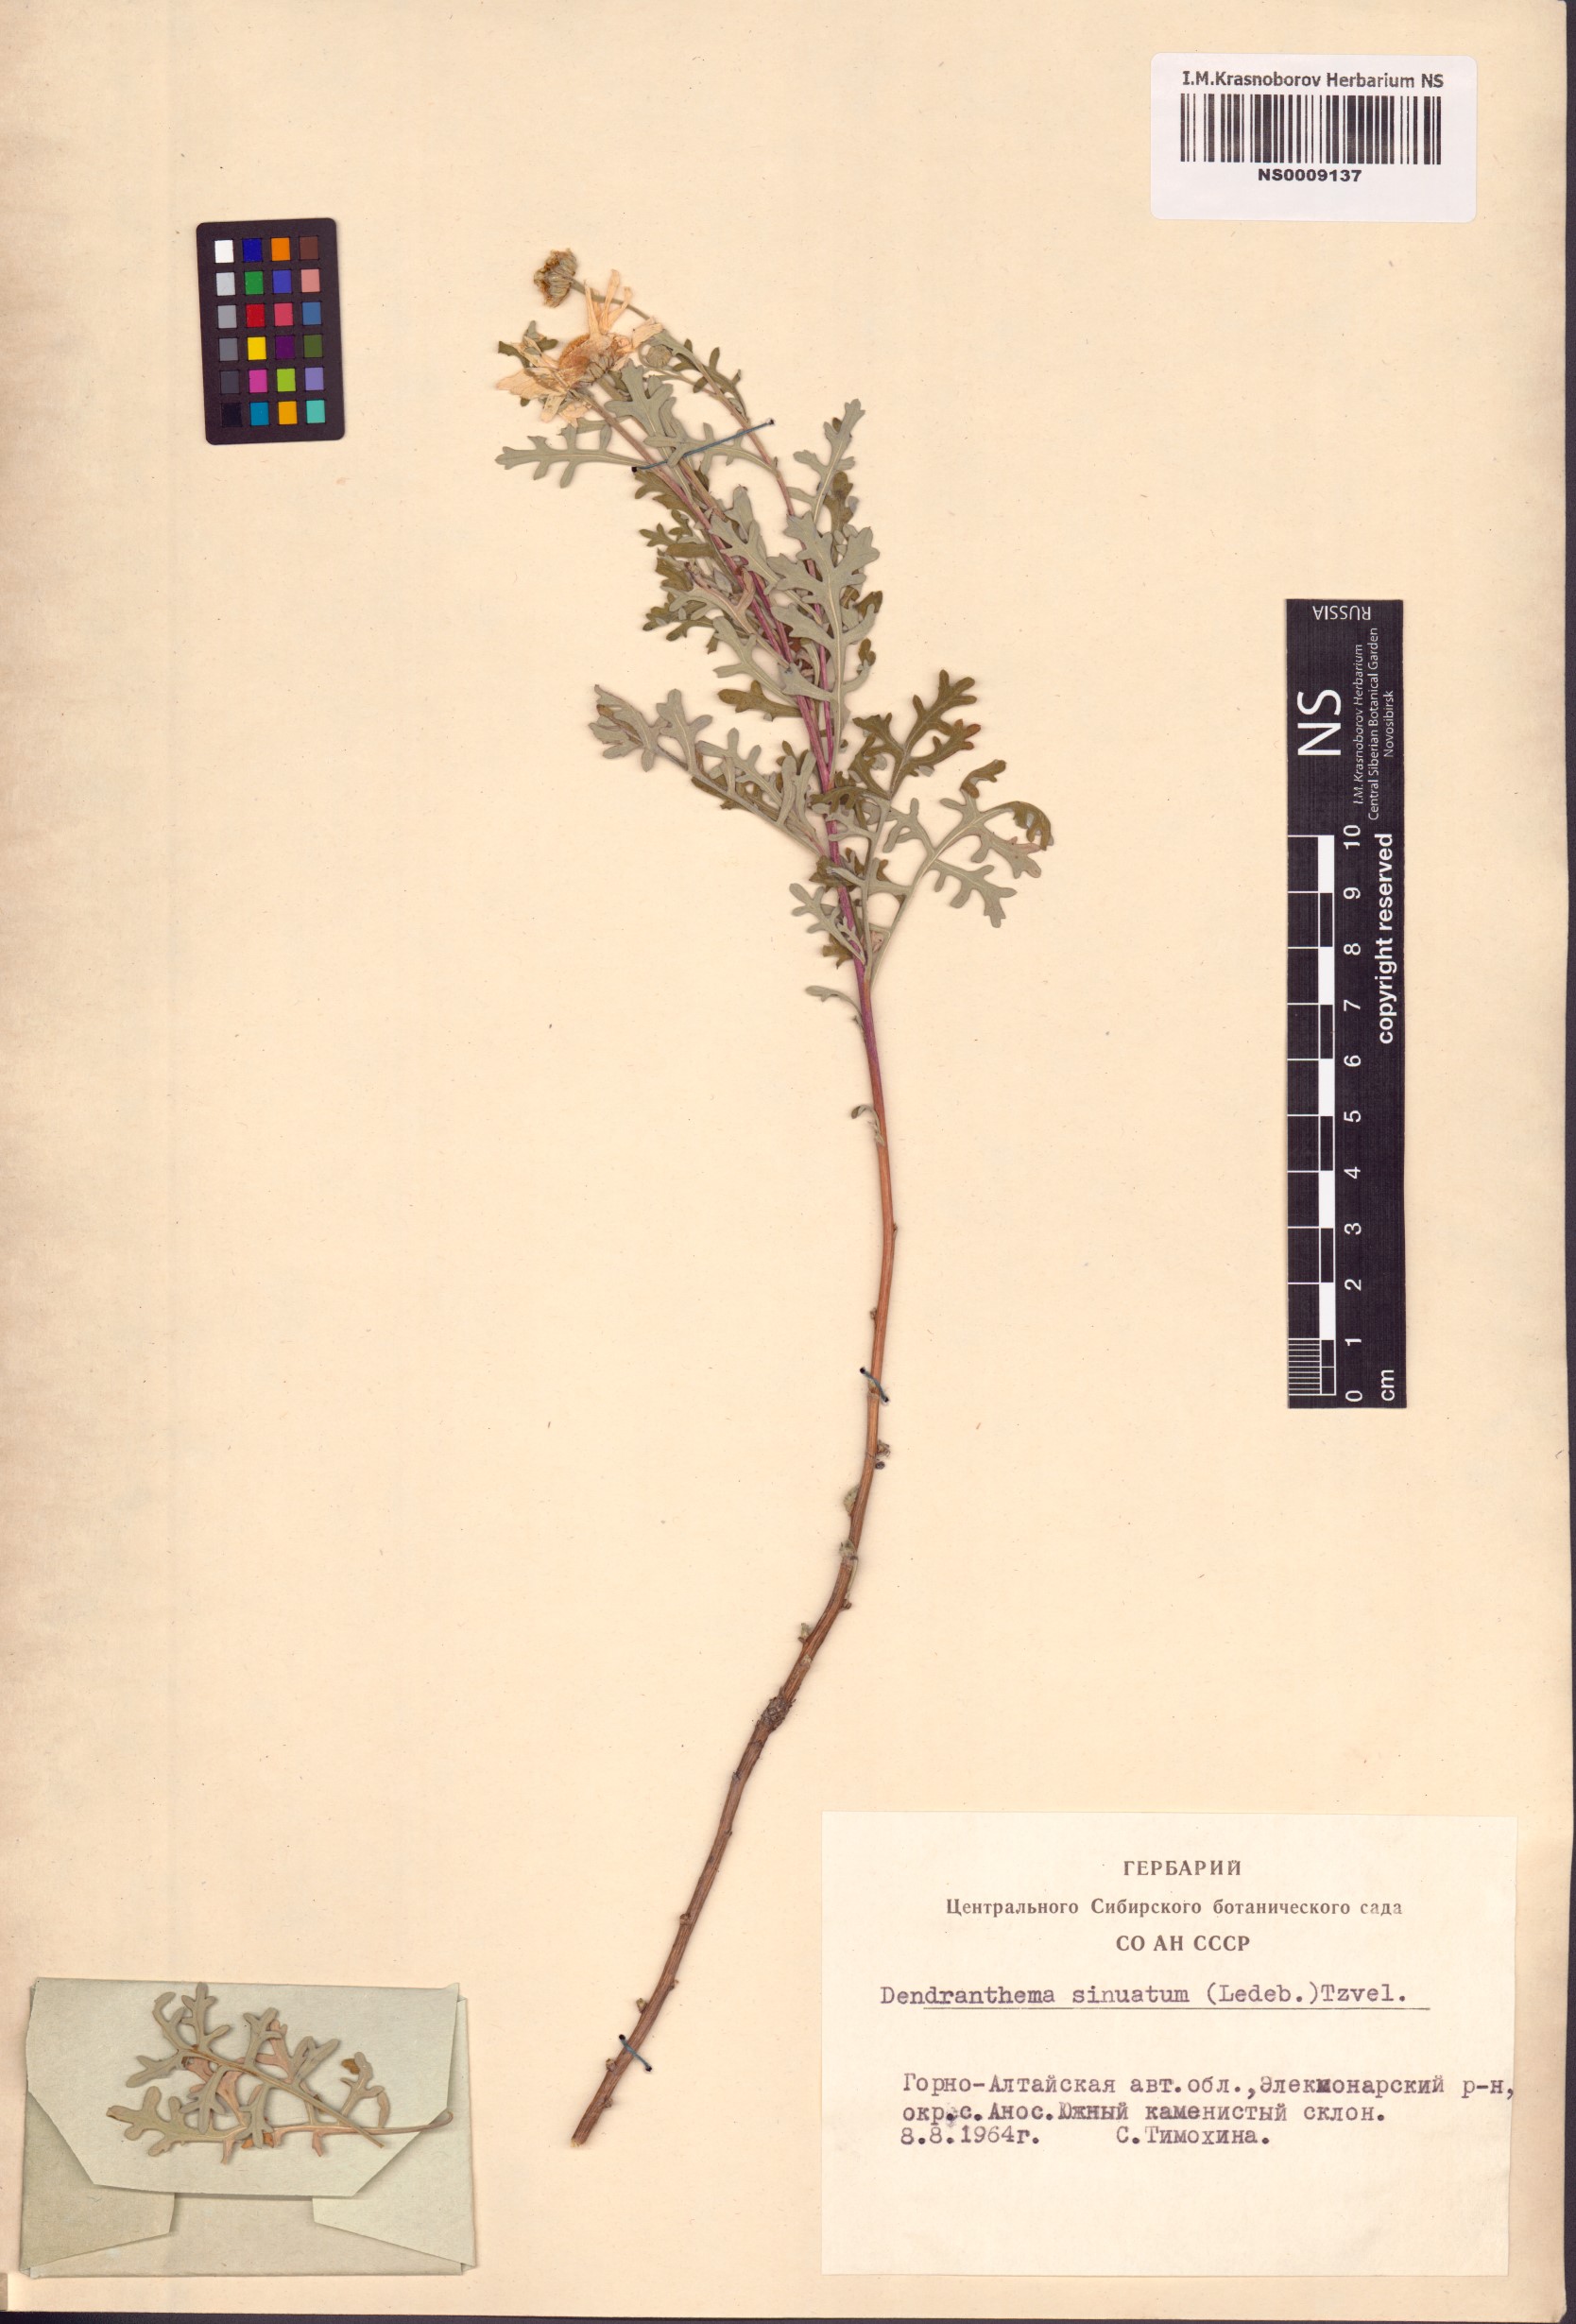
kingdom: Plantae
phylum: Tracheophyta
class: Magnoliopsida
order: Asterales
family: Asteraceae
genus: Chrysanthemum
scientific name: Chrysanthemum sinuatum
